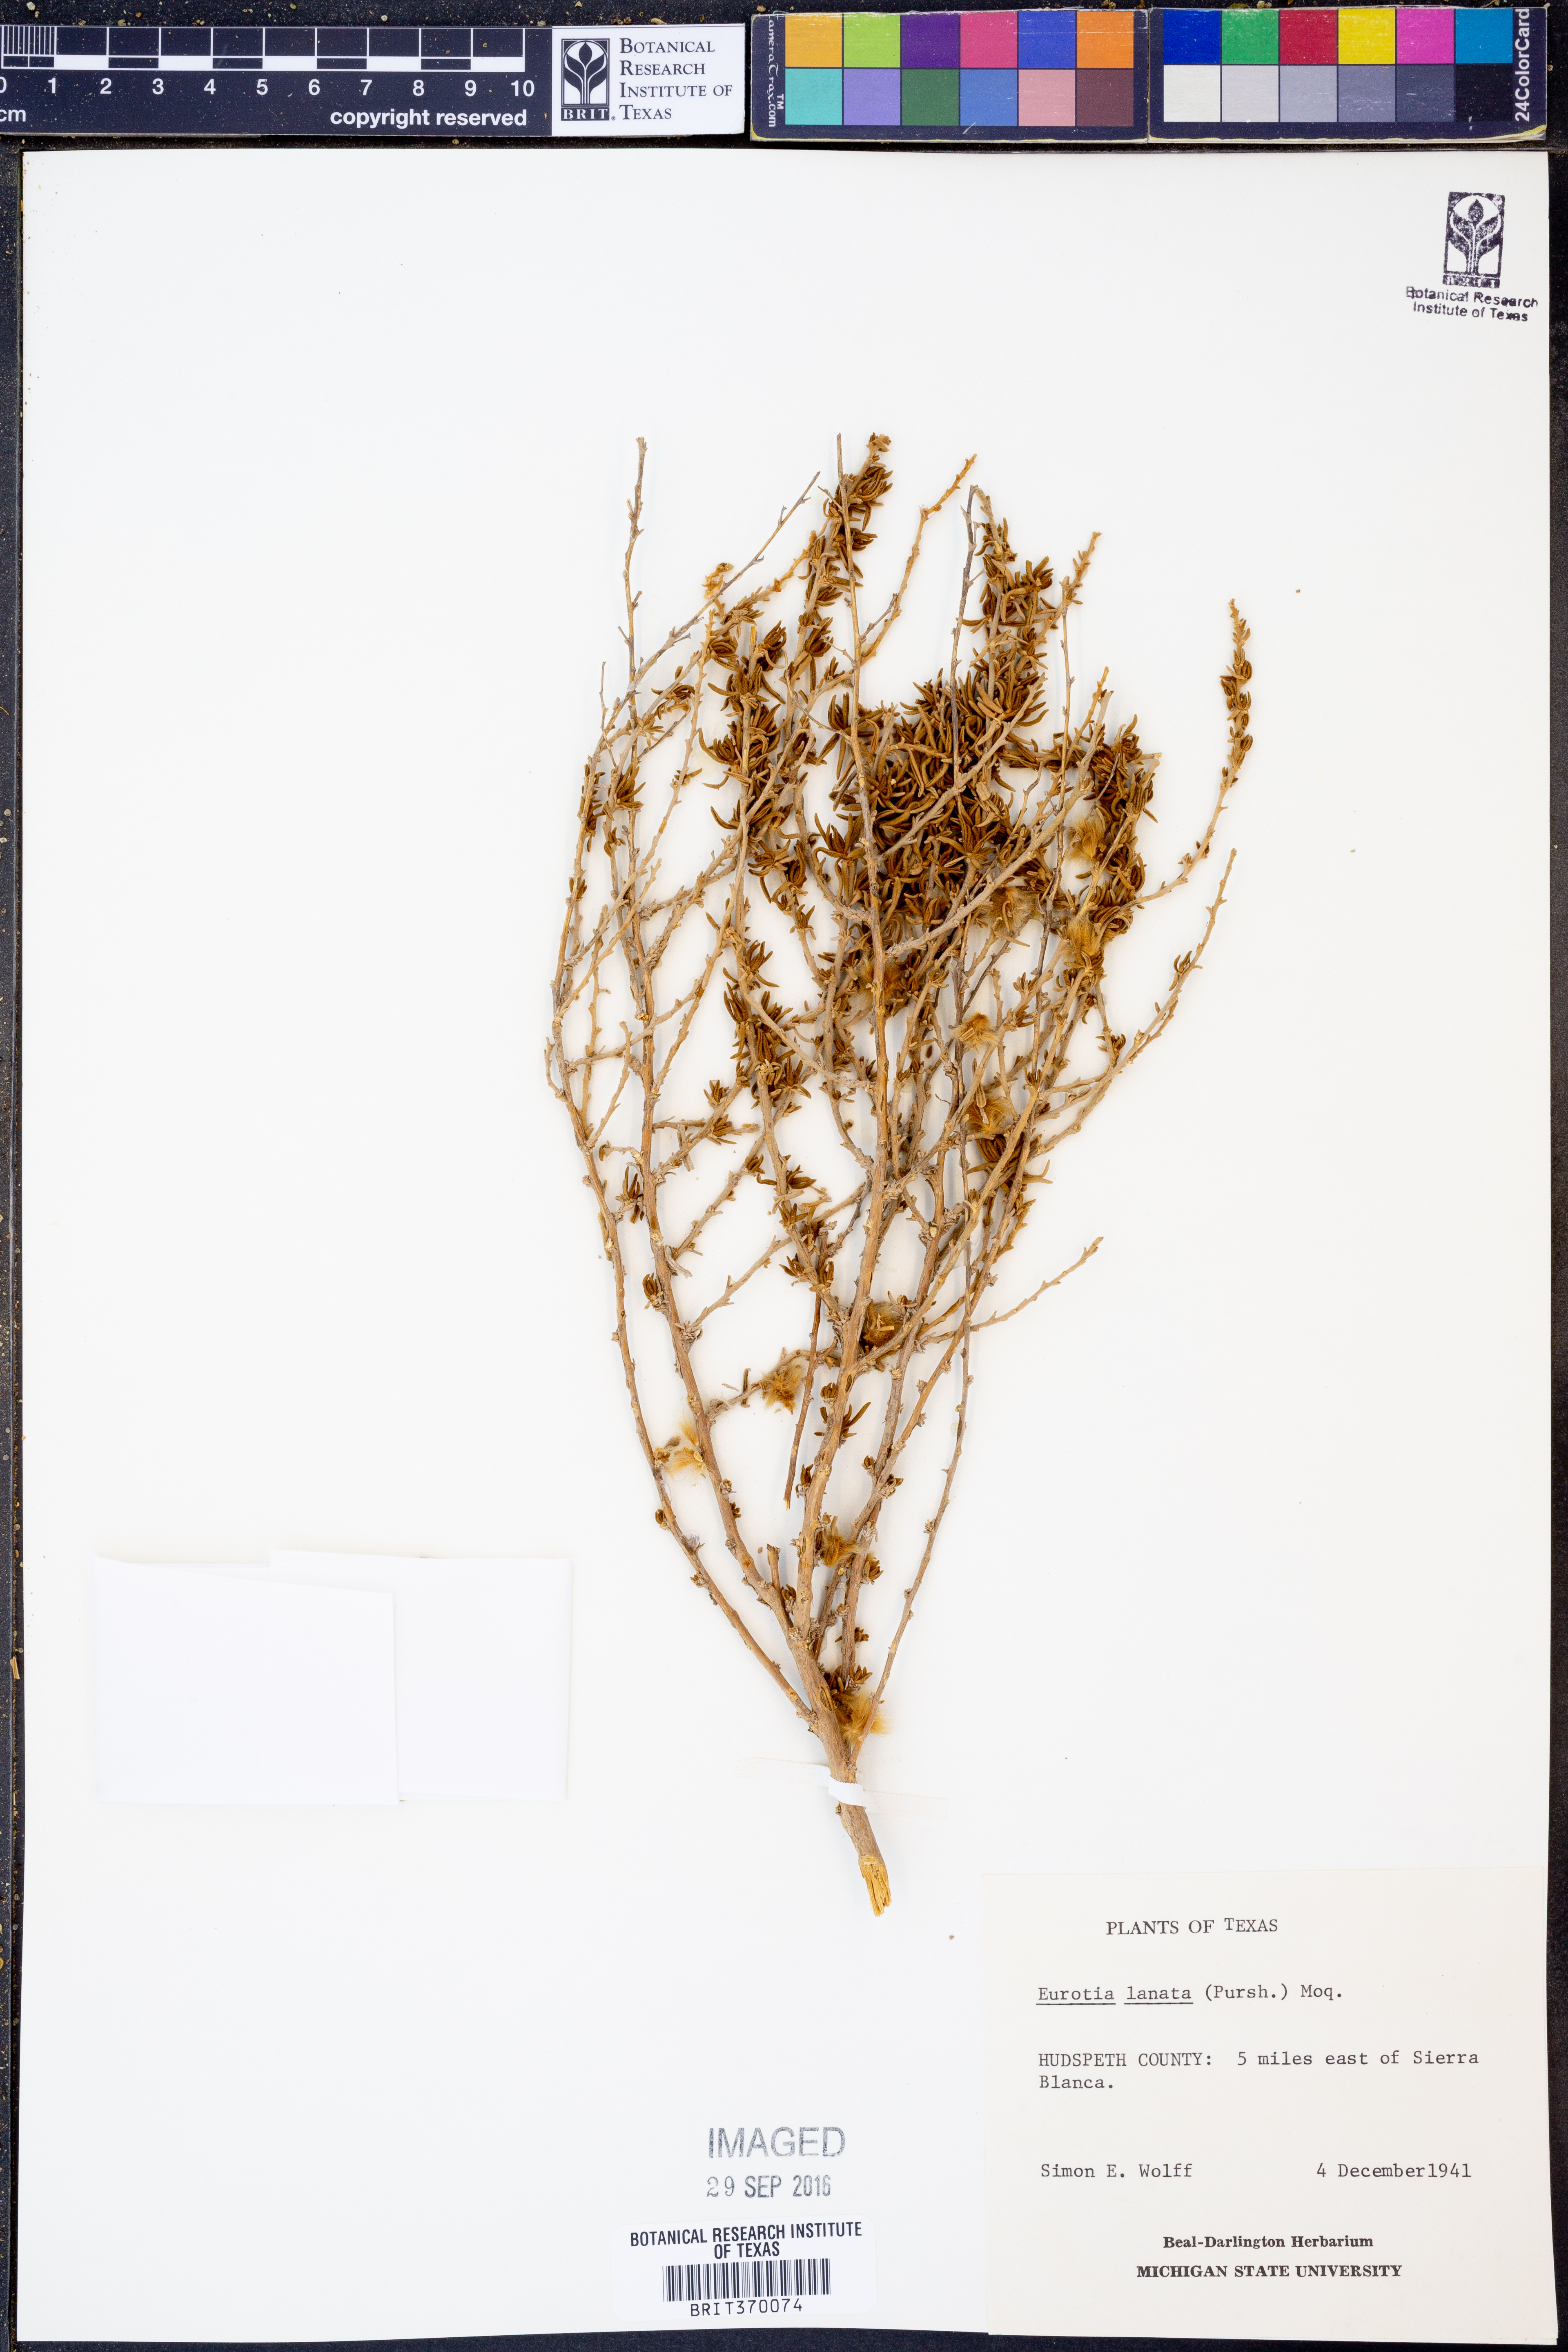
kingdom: Plantae
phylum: Tracheophyta
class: Magnoliopsida
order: Caryophyllales
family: Amaranthaceae
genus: Krascheninnikovia
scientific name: Krascheninnikovia lanata
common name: Winterfat
